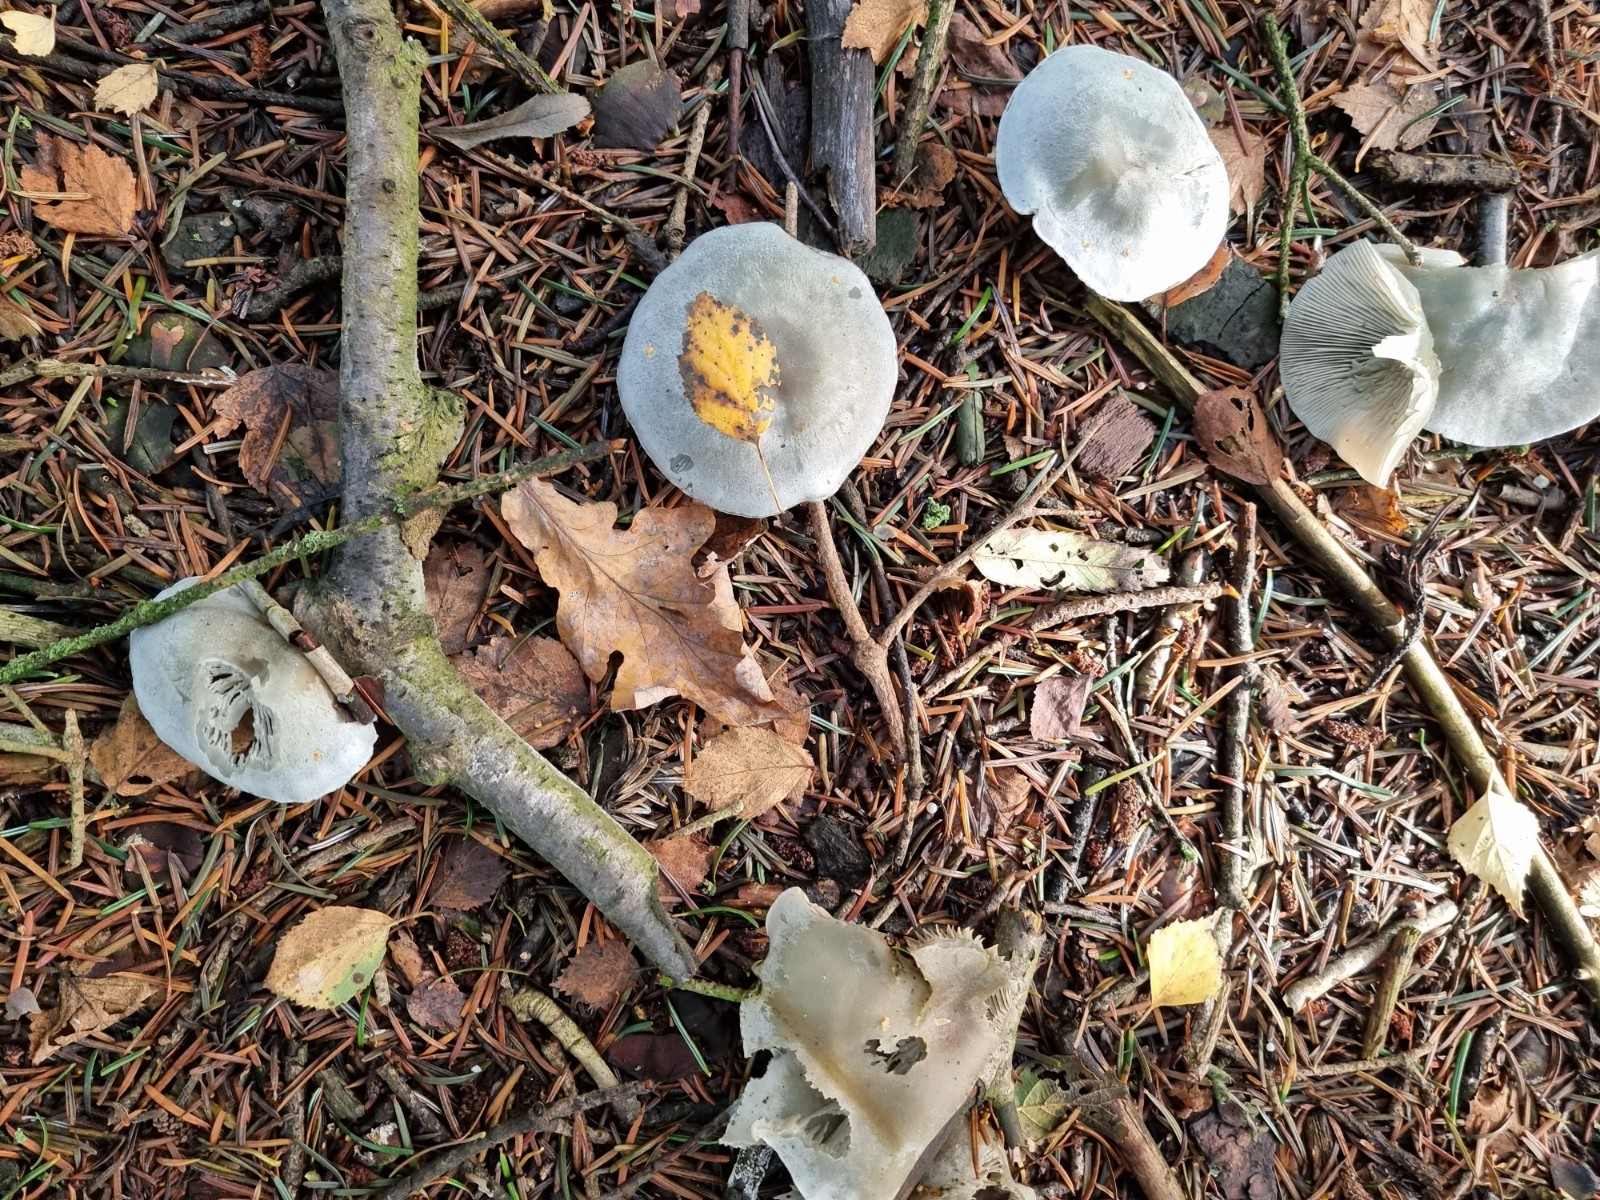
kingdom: Fungi
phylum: Basidiomycota
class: Agaricomycetes
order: Agaricales
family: Tricholomataceae
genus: Clitocybe
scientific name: Clitocybe odora
